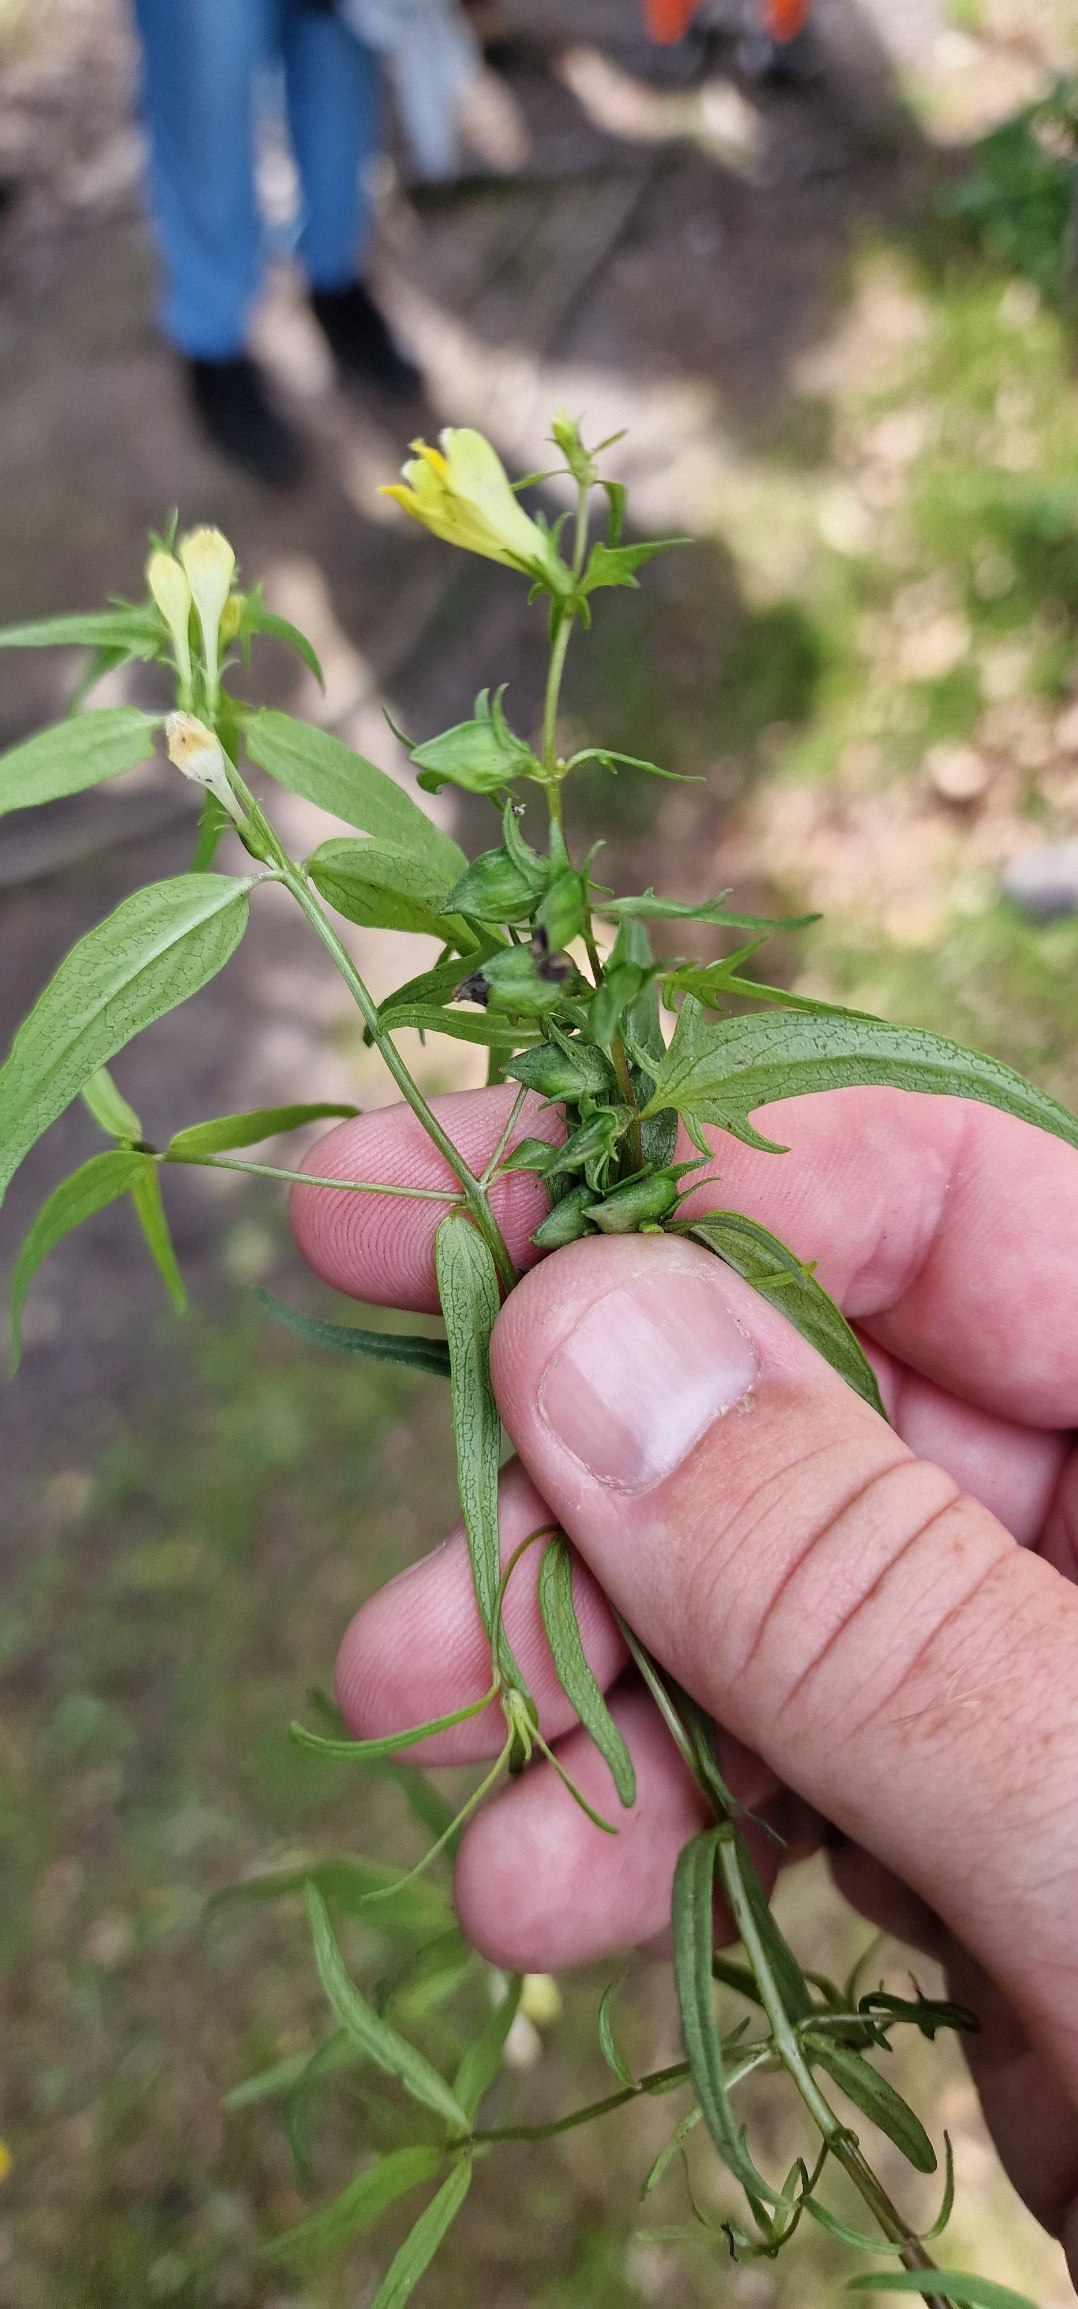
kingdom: Plantae
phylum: Tracheophyta
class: Magnoliopsida
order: Lamiales
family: Orobanchaceae
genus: Melampyrum
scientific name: Melampyrum pratense
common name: Almindelig kohvede
